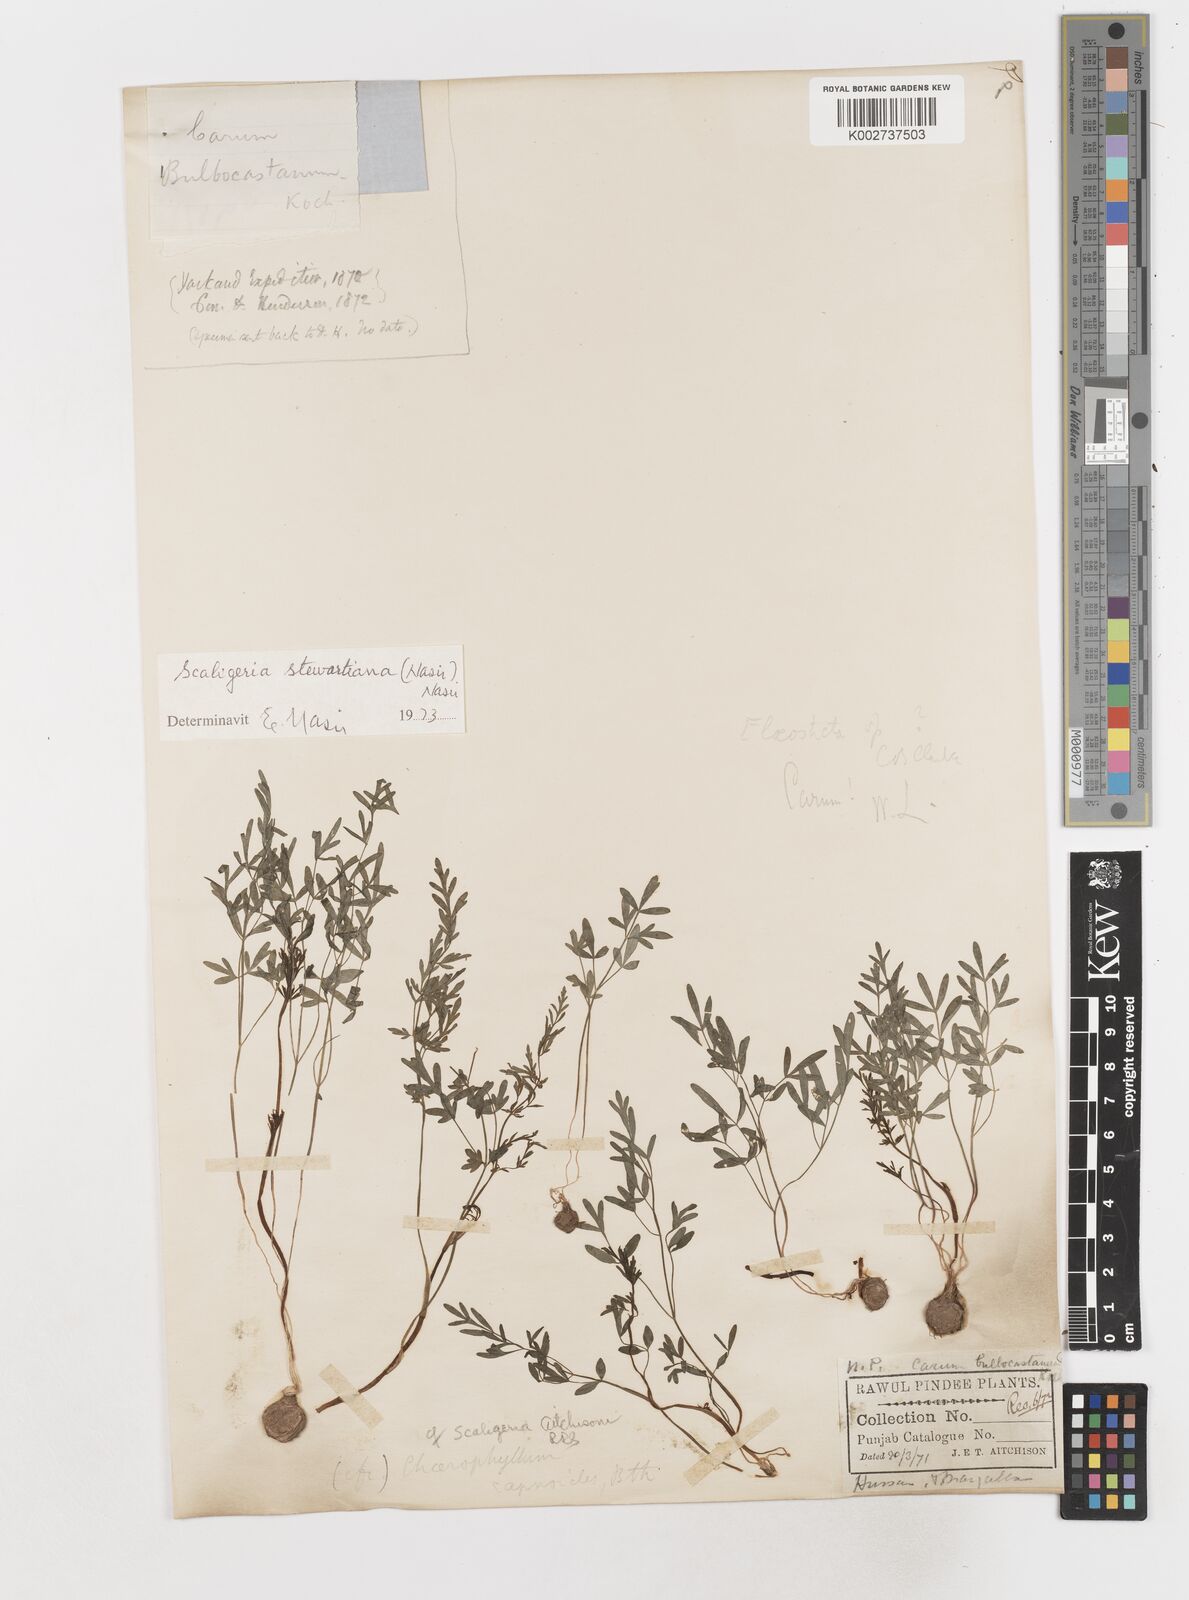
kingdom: Plantae
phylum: Tracheophyta
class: Magnoliopsida
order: Apiales
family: Apiaceae
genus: Scaligeria
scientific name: Scaligeria hirtula
